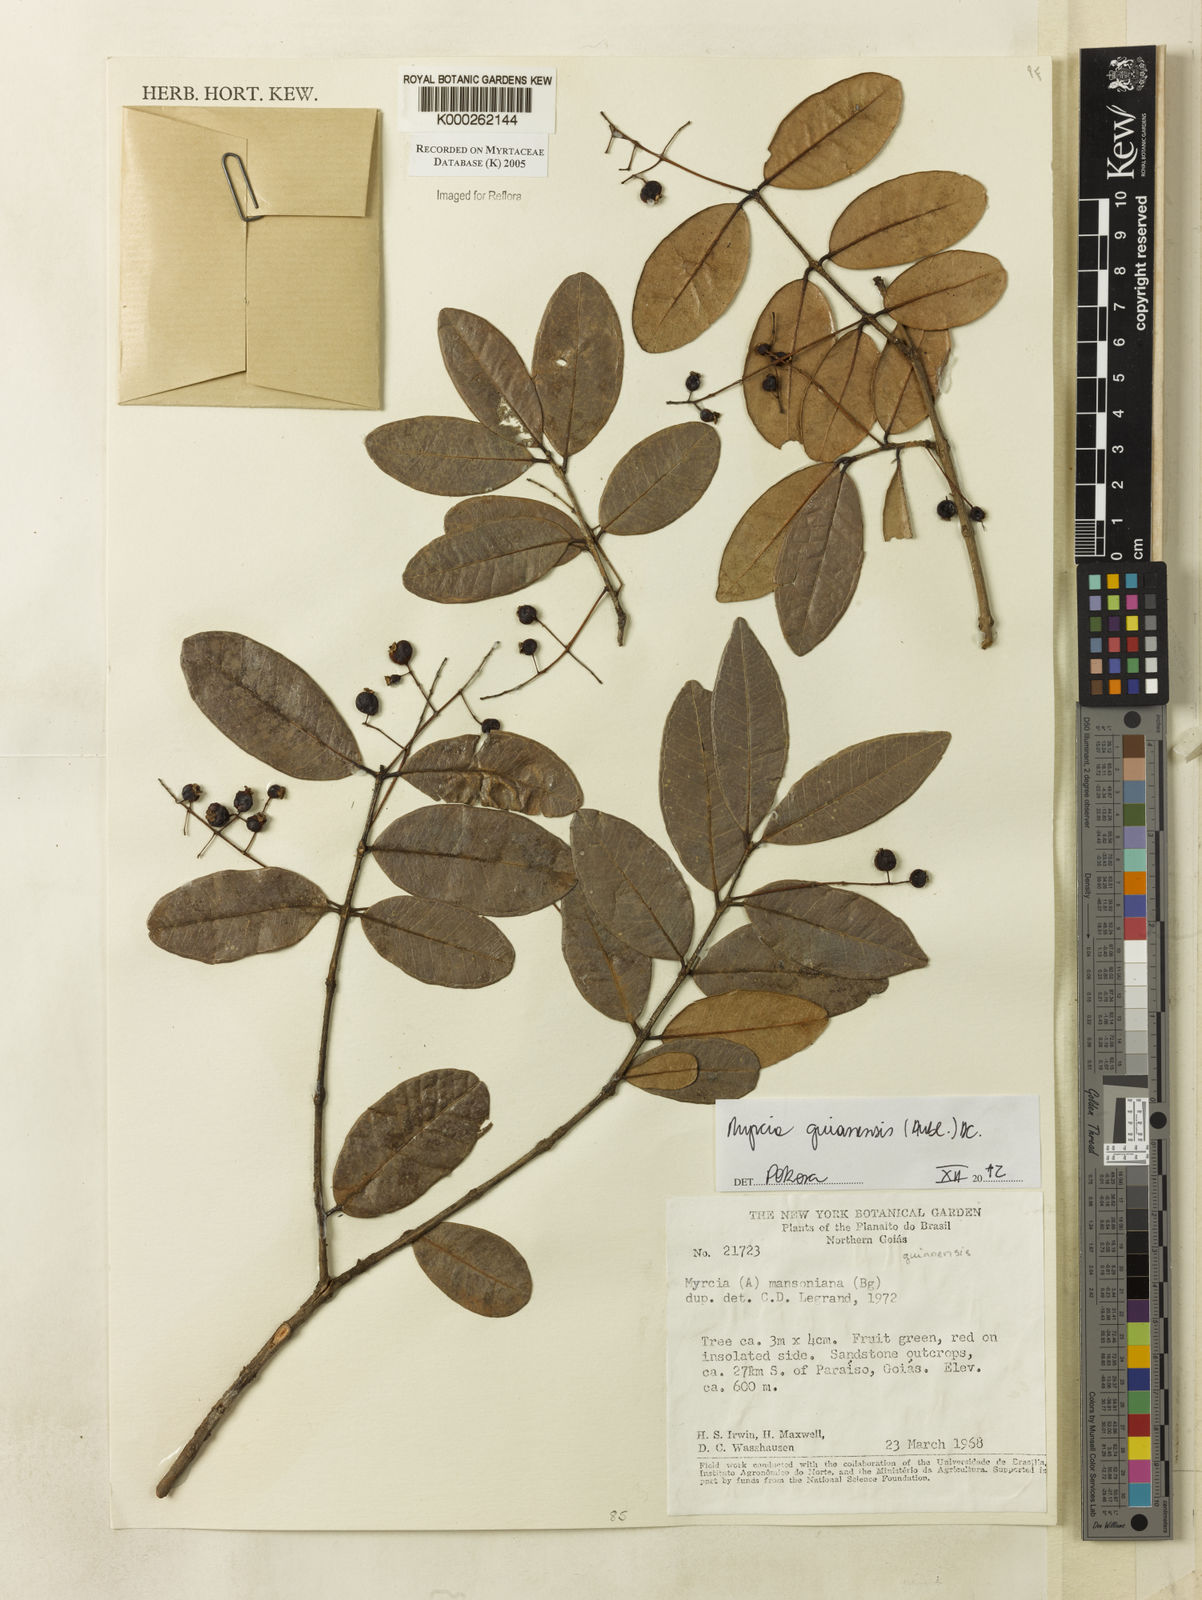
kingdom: Plantae
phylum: Tracheophyta
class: Magnoliopsida
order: Myrtales
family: Myrtaceae
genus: Myrcia
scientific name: Myrcia mansoniana
